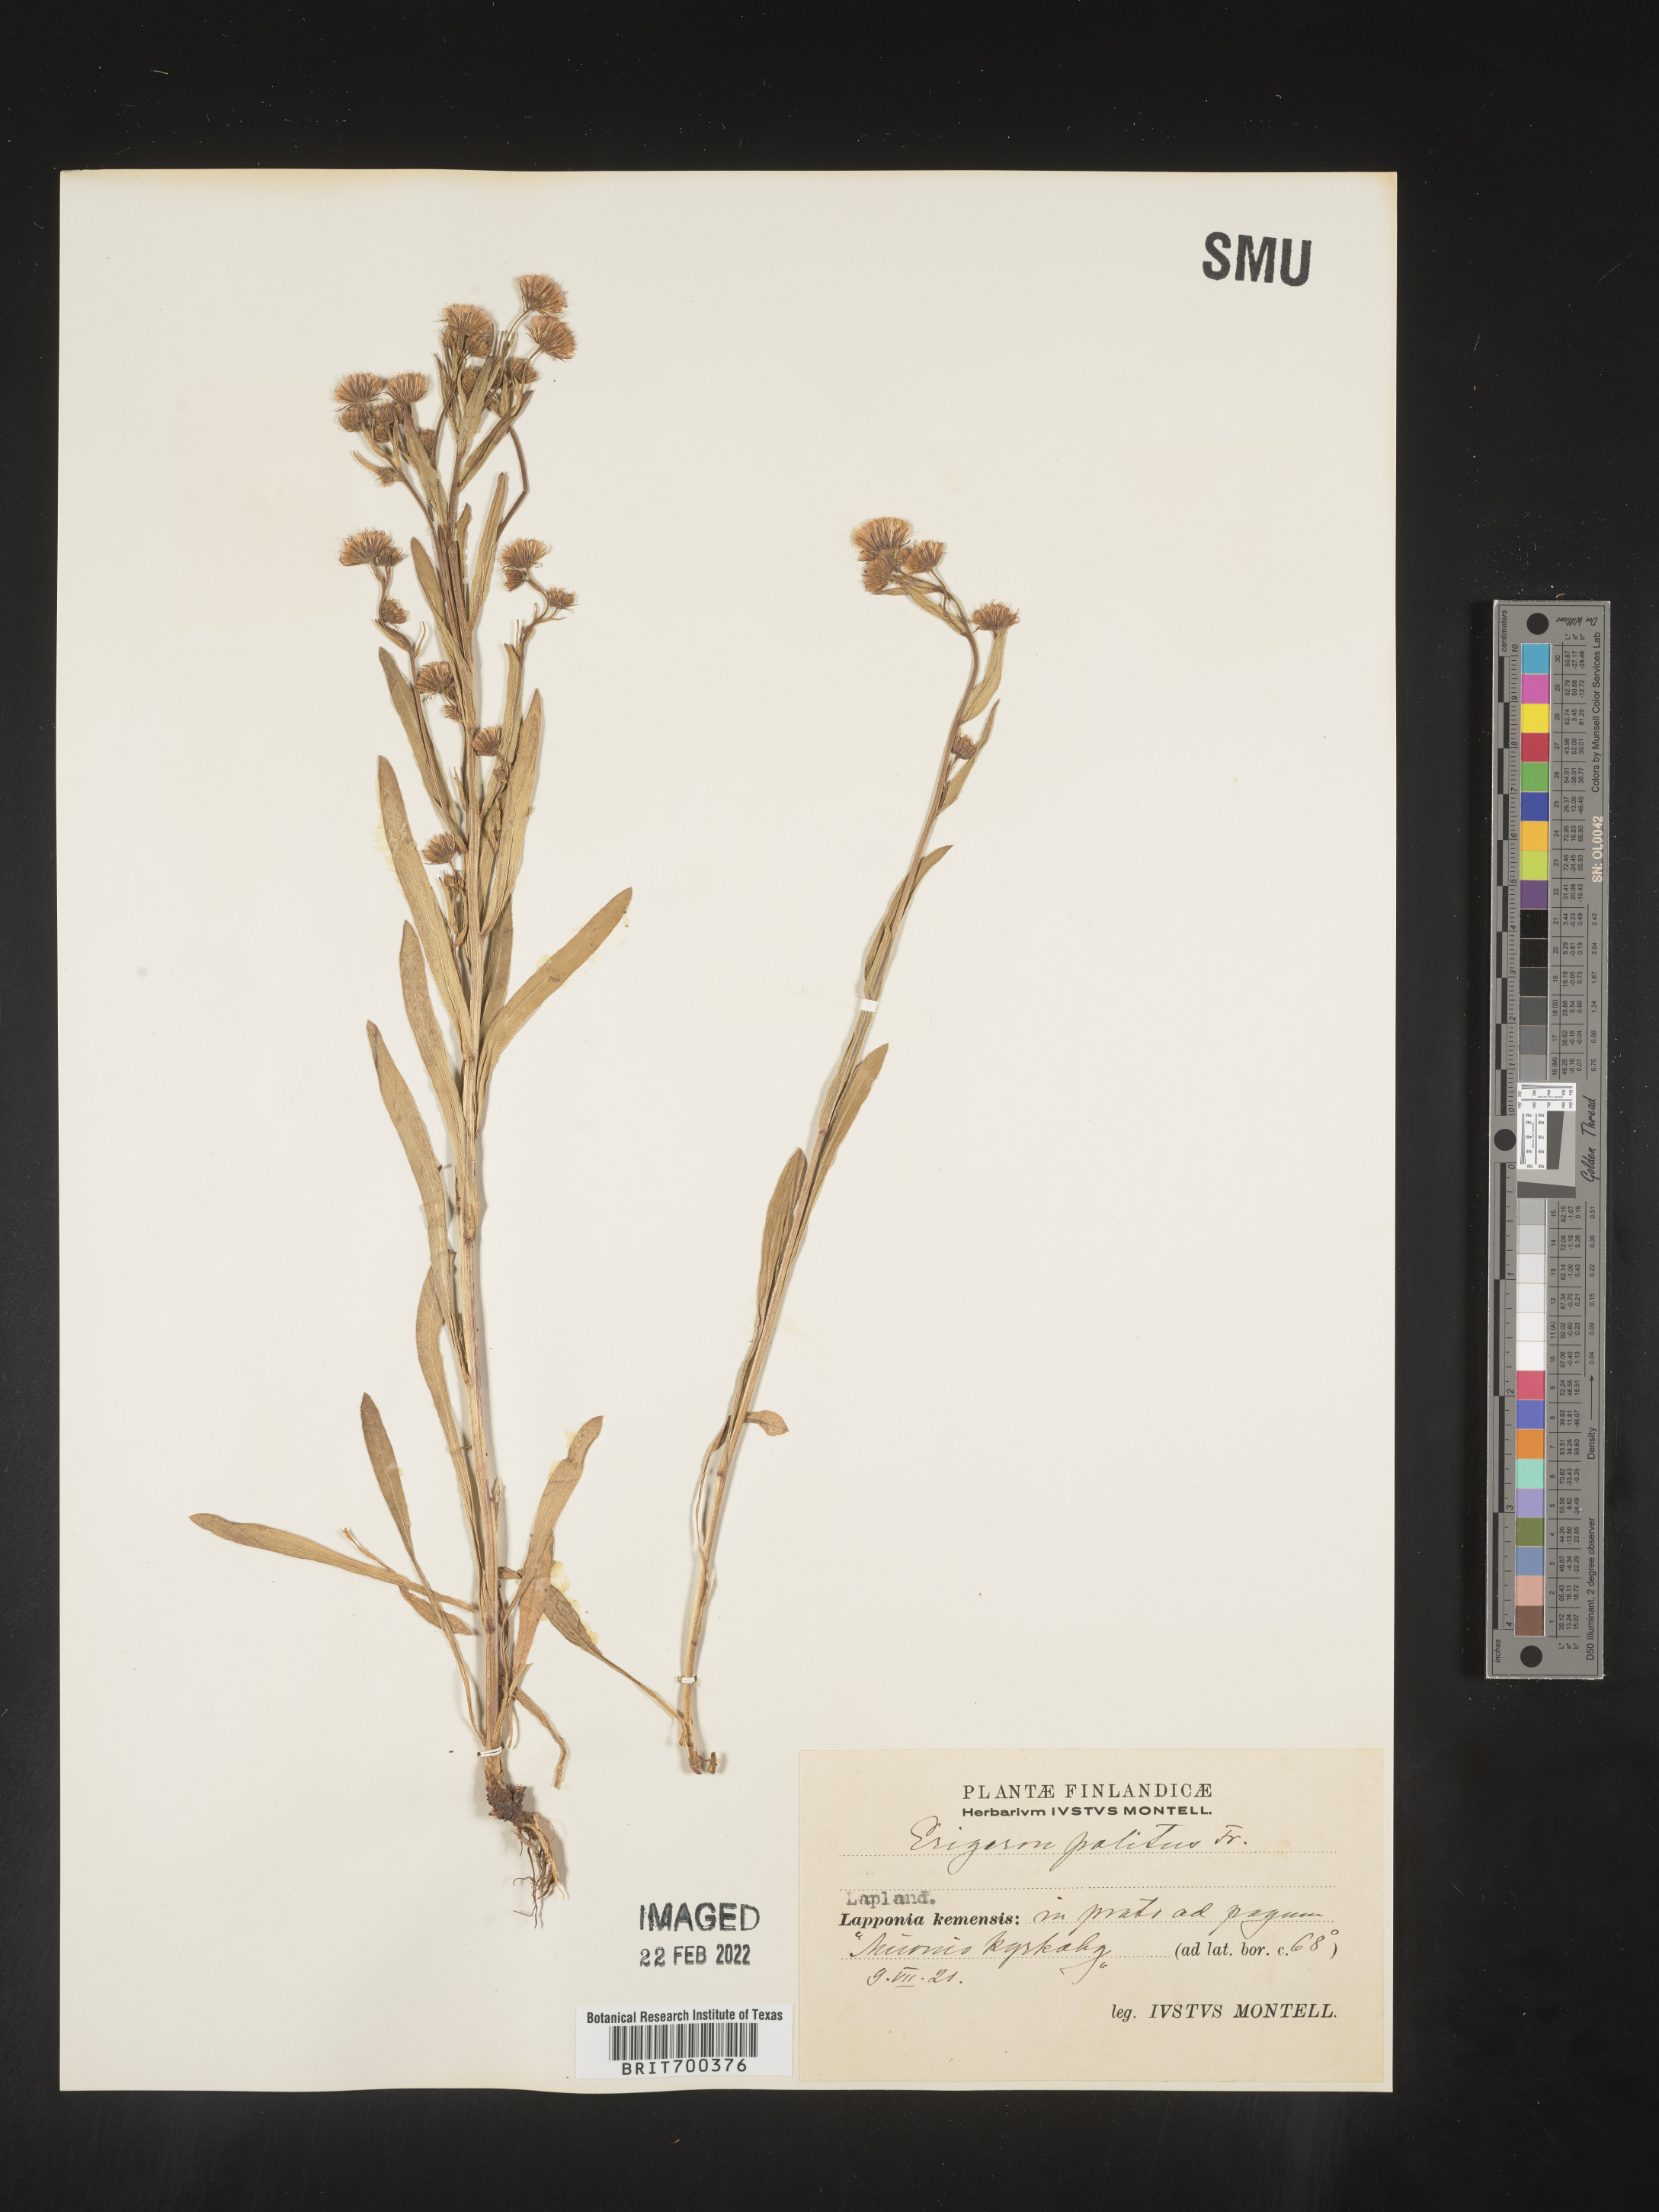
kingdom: Plantae
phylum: Tracheophyta
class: Magnoliopsida
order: Asterales
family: Asteraceae
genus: Erigeron
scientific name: Erigeron
